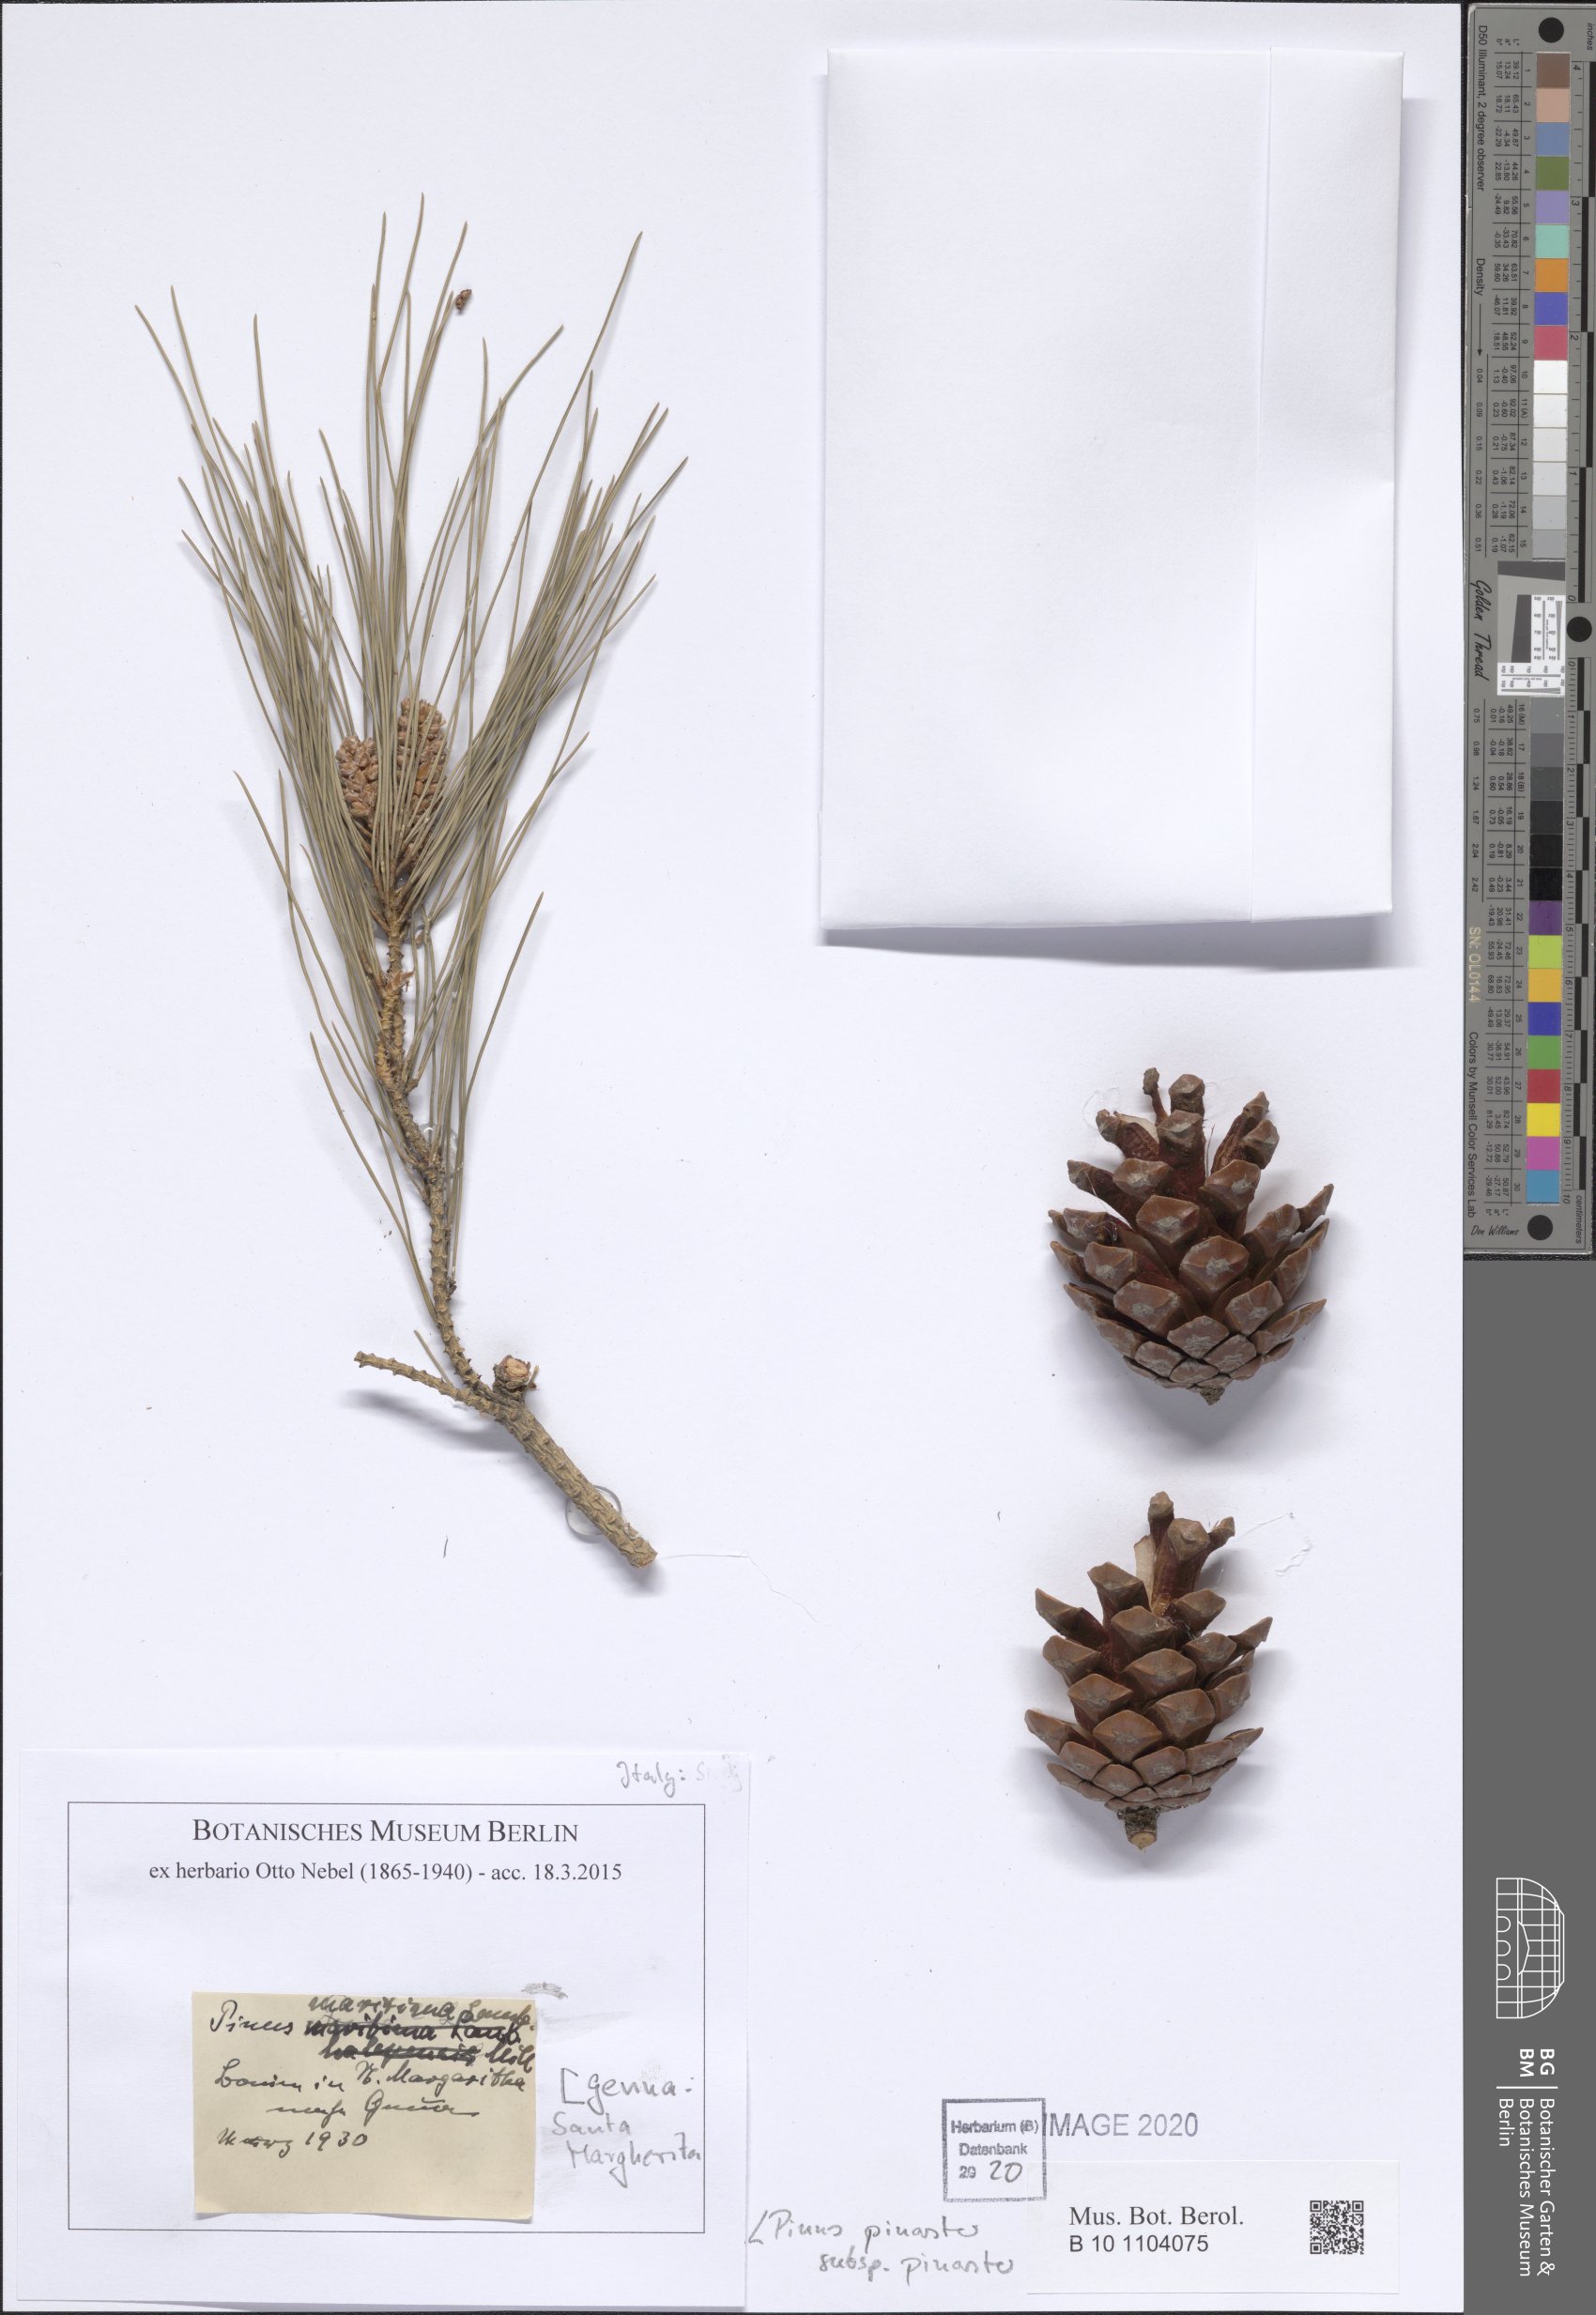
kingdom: Plantae
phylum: Tracheophyta
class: Pinopsida
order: Pinales
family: Pinaceae
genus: Pinus
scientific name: Pinus pinaster
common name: Maritime pine
